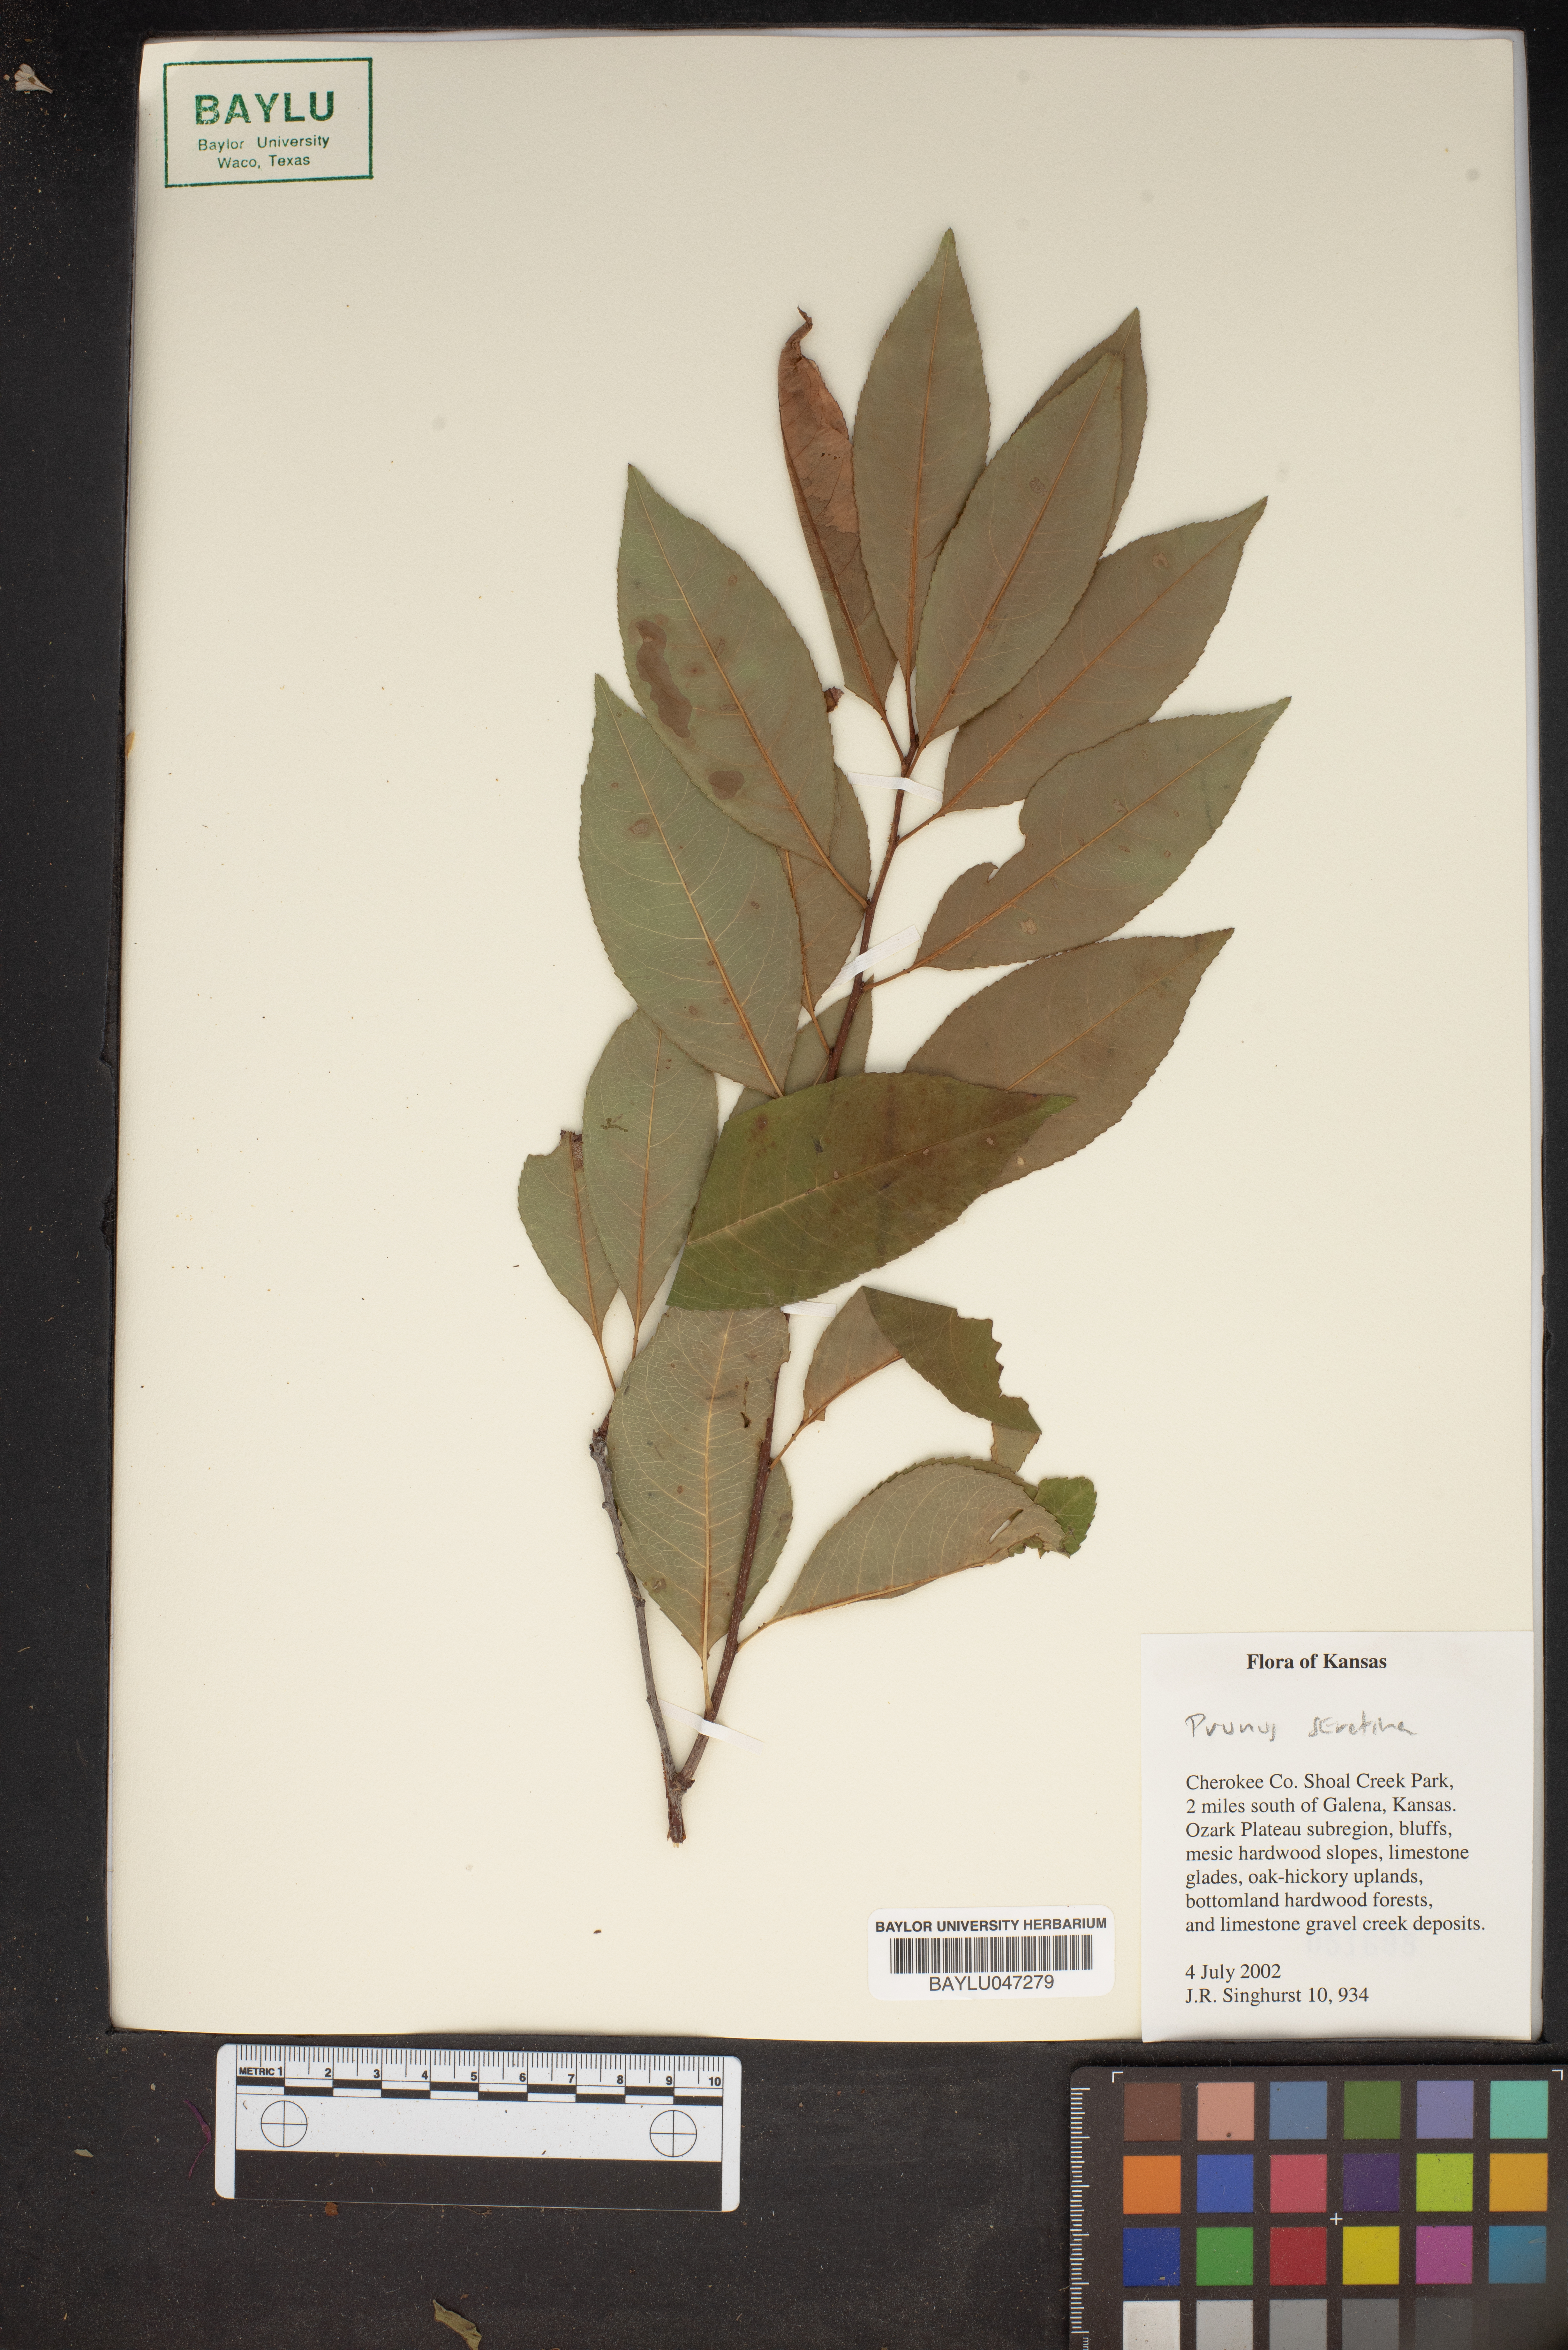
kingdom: Plantae
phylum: Tracheophyta
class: Magnoliopsida
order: Rosales
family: Rosaceae
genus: Prunus
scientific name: Prunus serotina
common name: Black cherry
